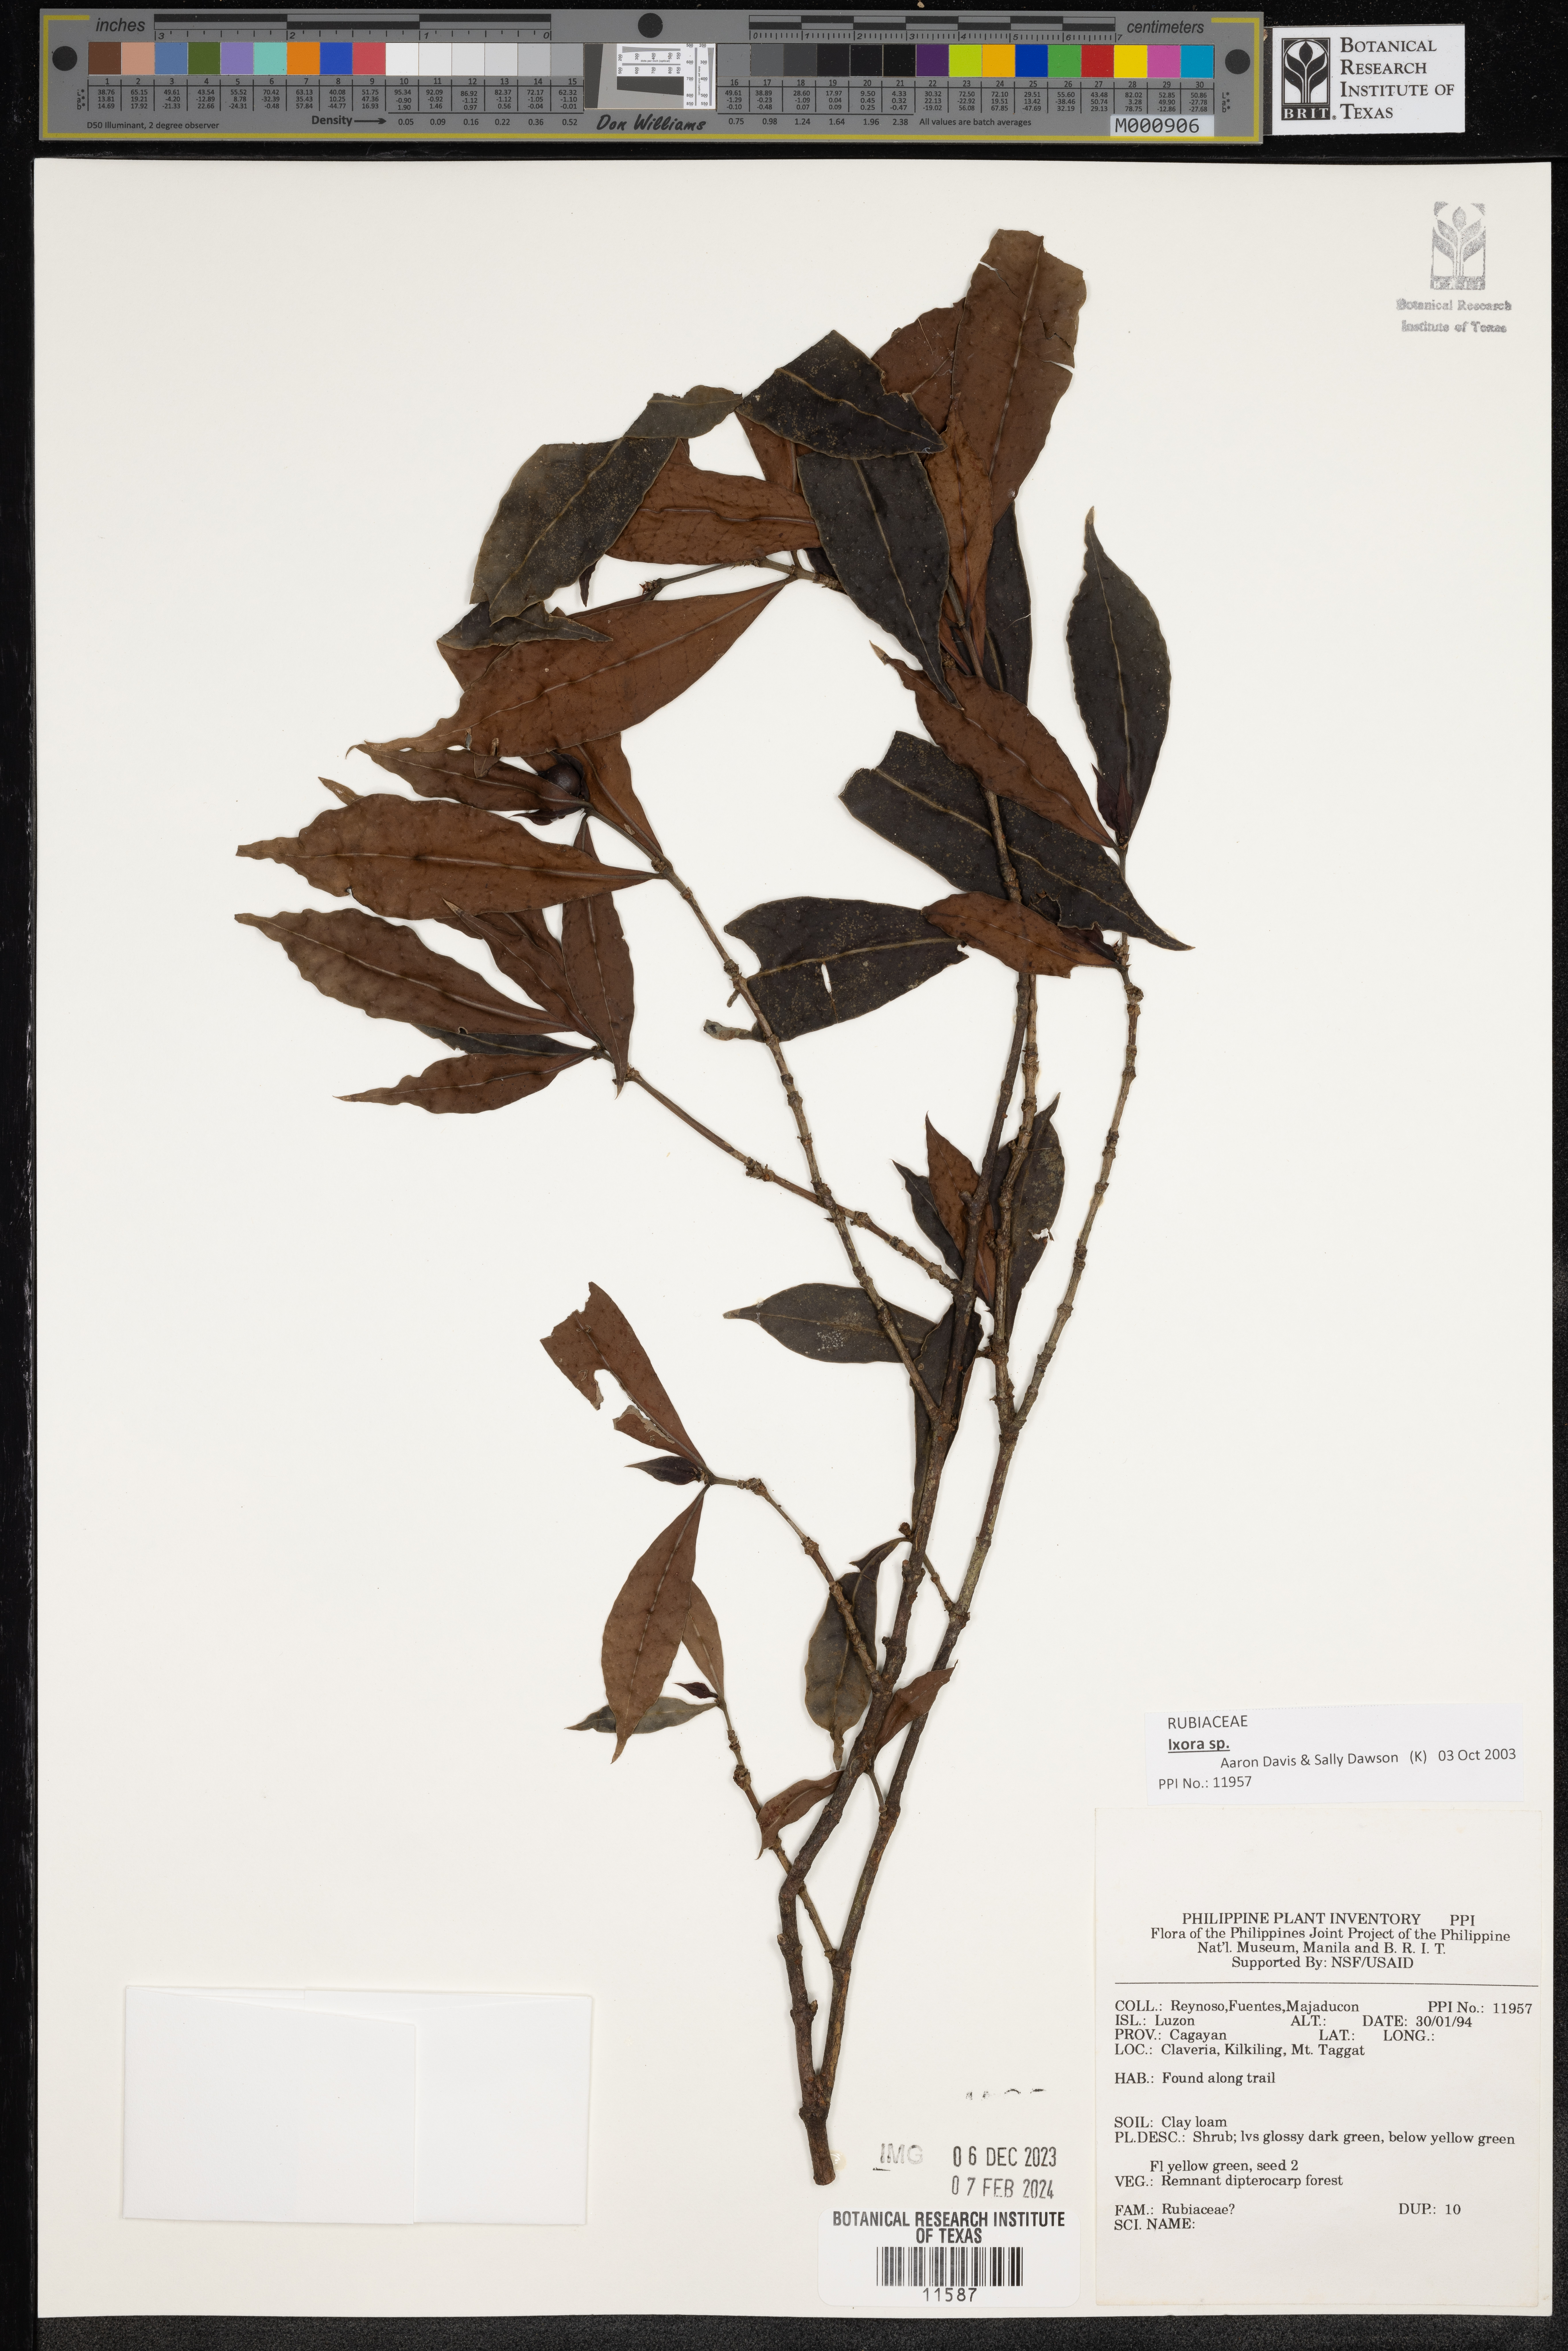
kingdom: Plantae
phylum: Tracheophyta
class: Magnoliopsida
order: Gentianales
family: Rubiaceae
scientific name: Rubiaceae
